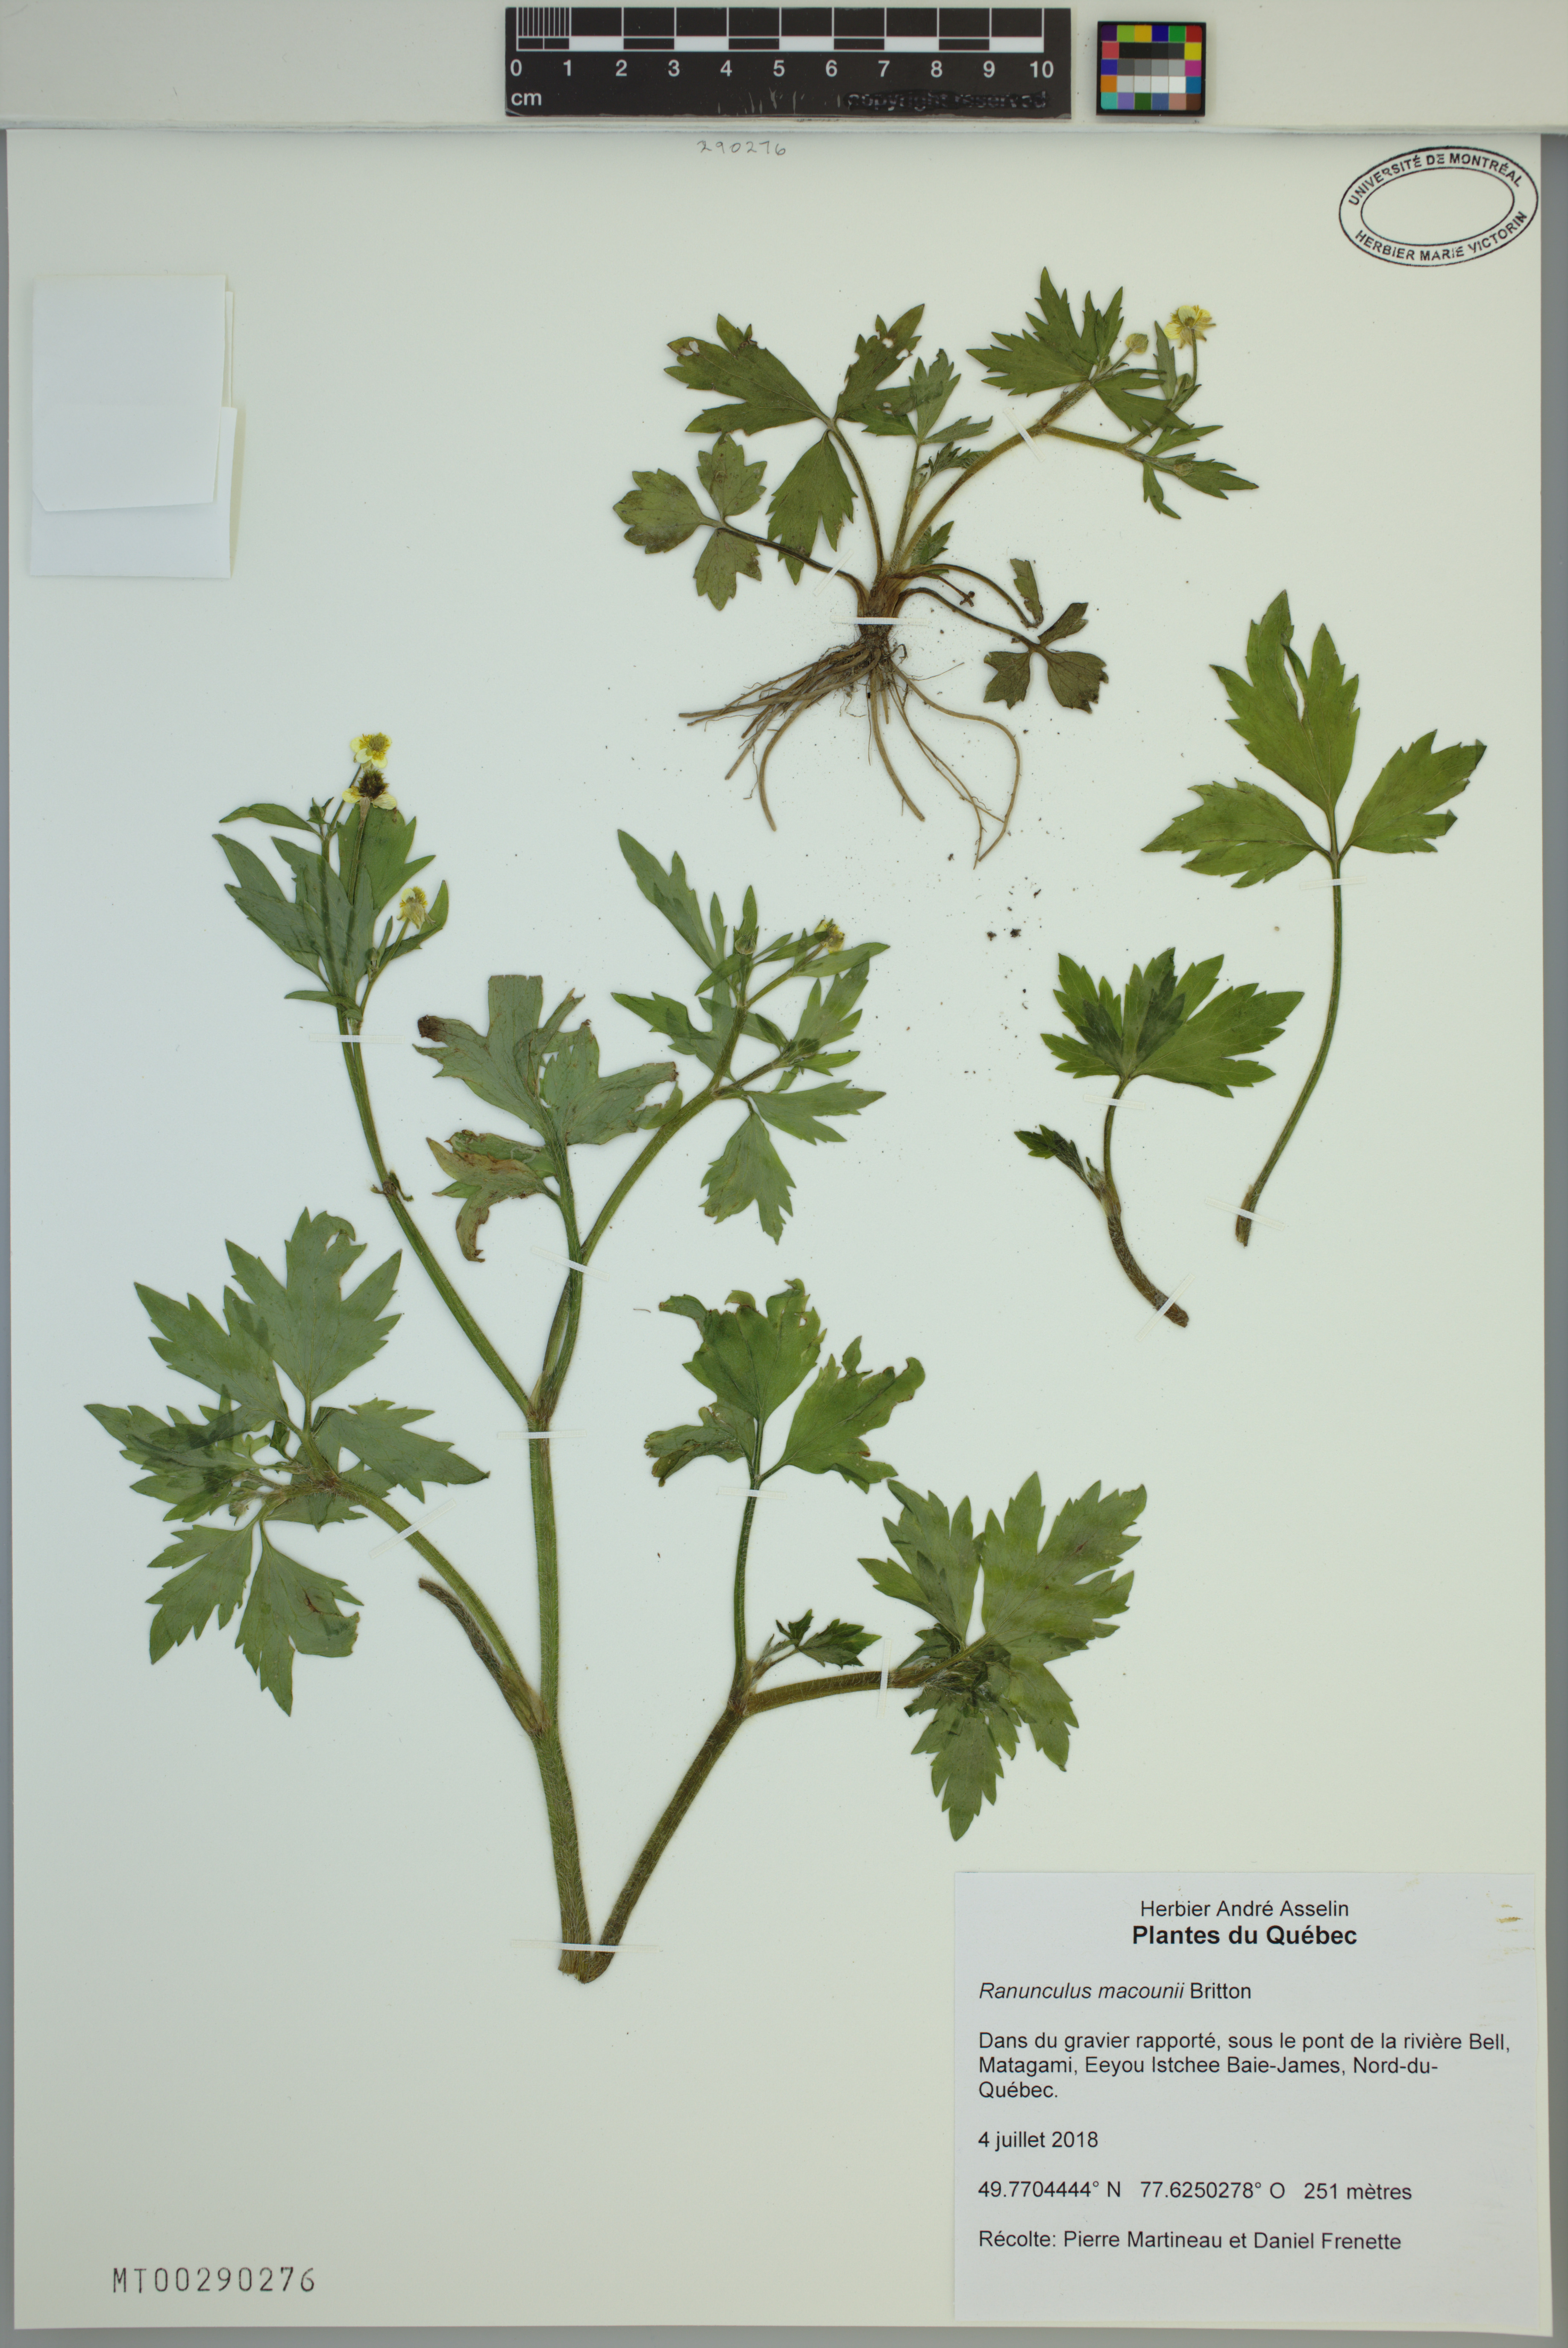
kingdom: Plantae
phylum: Tracheophyta
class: Magnoliopsida
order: Ranunculales
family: Ranunculaceae
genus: Ranunculus
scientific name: Ranunculus macounii
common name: Macoun's buttercup
